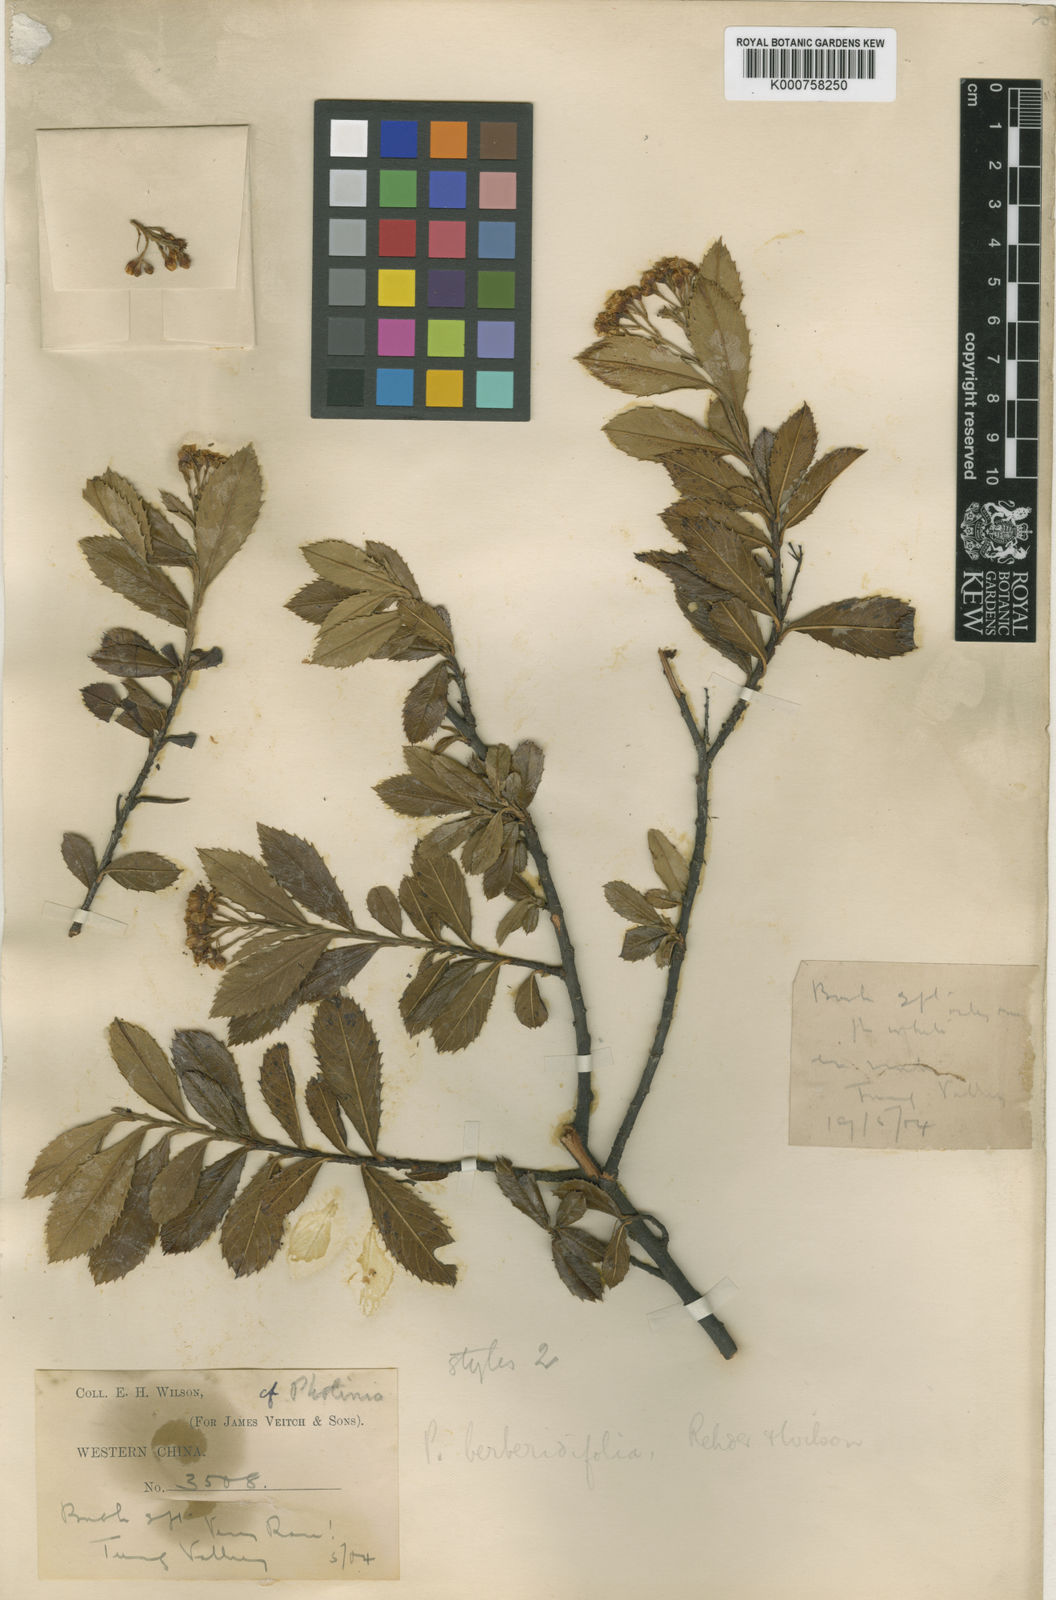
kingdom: Plantae
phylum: Tracheophyta
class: Magnoliopsida
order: Rosales
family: Rosaceae
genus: Photinia
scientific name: Photinia berberidifolia
